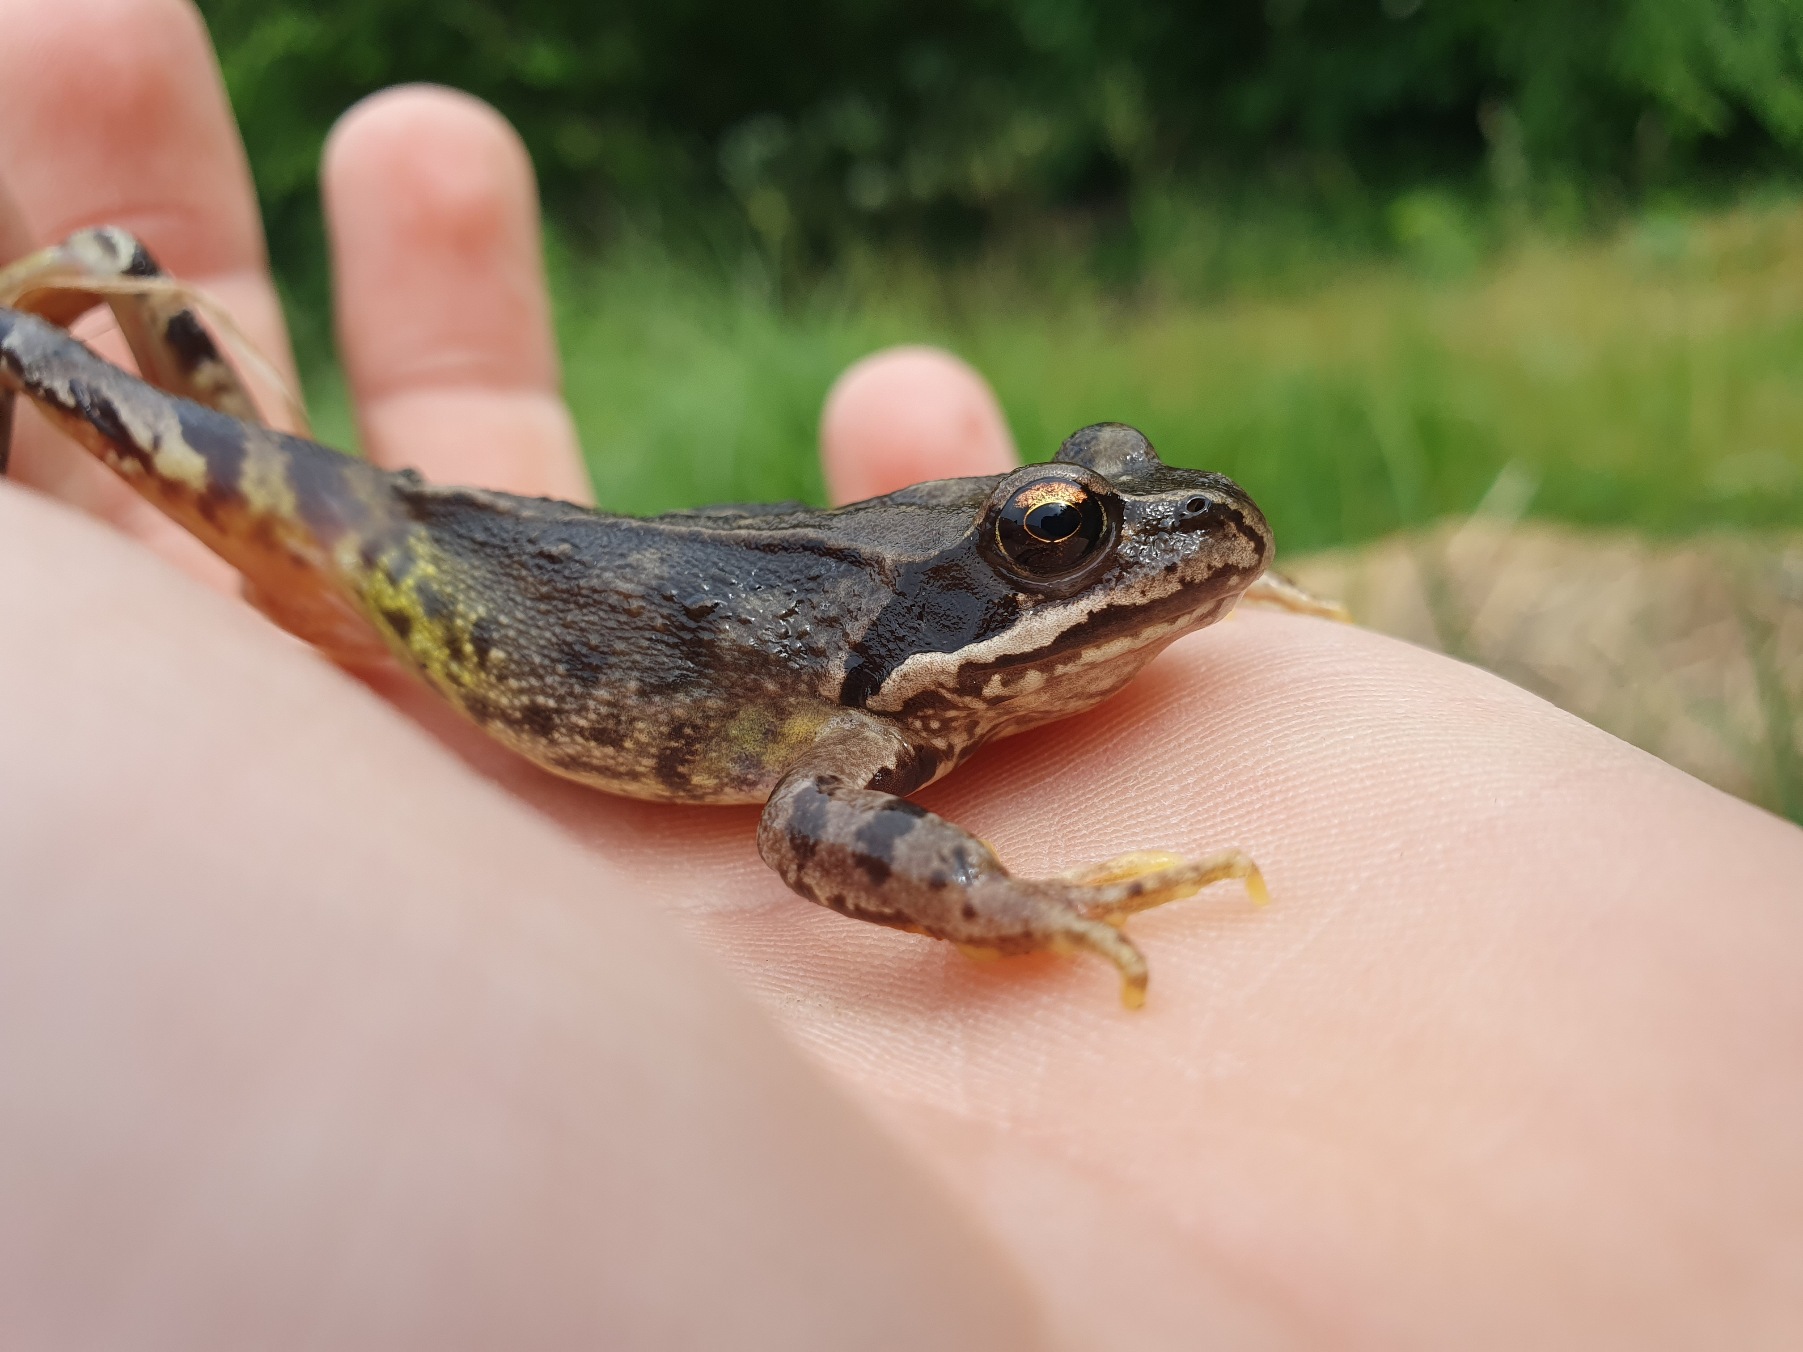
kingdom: Animalia
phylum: Chordata
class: Amphibia
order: Anura
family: Ranidae
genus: Rana
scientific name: Rana temporaria
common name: Butsnudet frø
